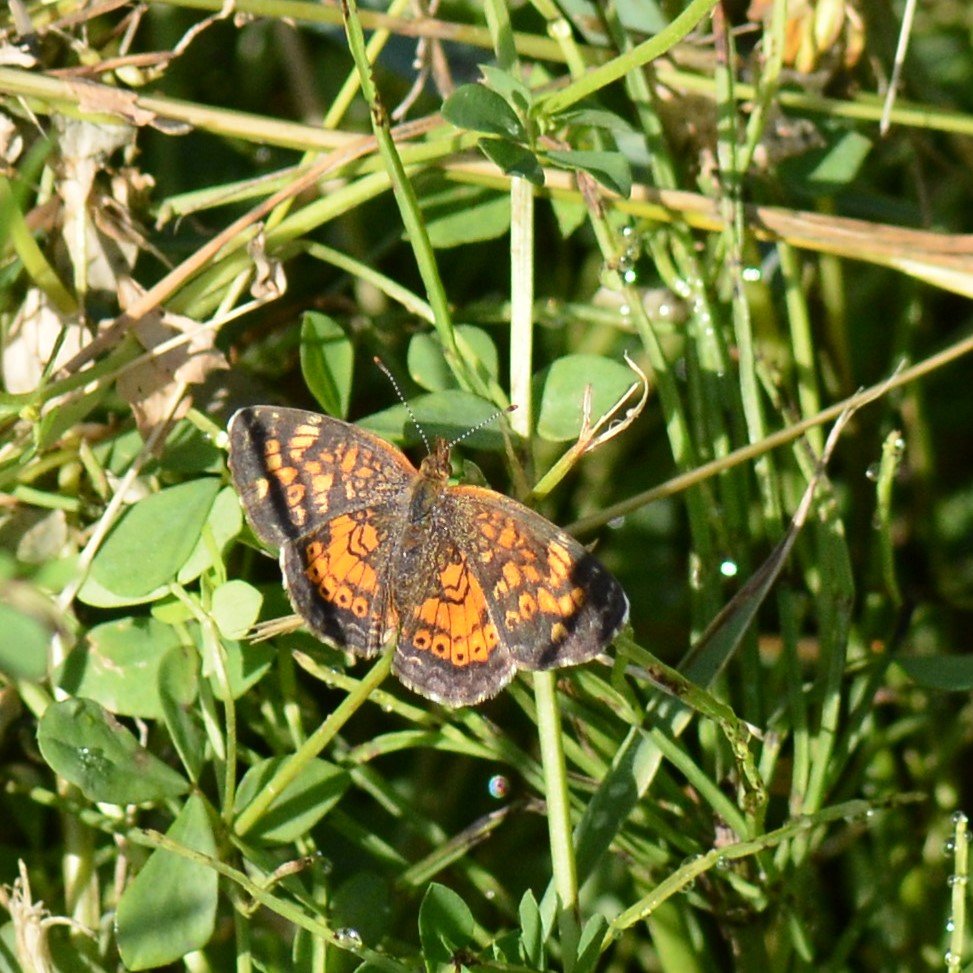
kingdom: Animalia
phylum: Arthropoda
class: Insecta
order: Lepidoptera
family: Nymphalidae
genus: Phyciodes
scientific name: Phyciodes tharos
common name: Northern Crescent
